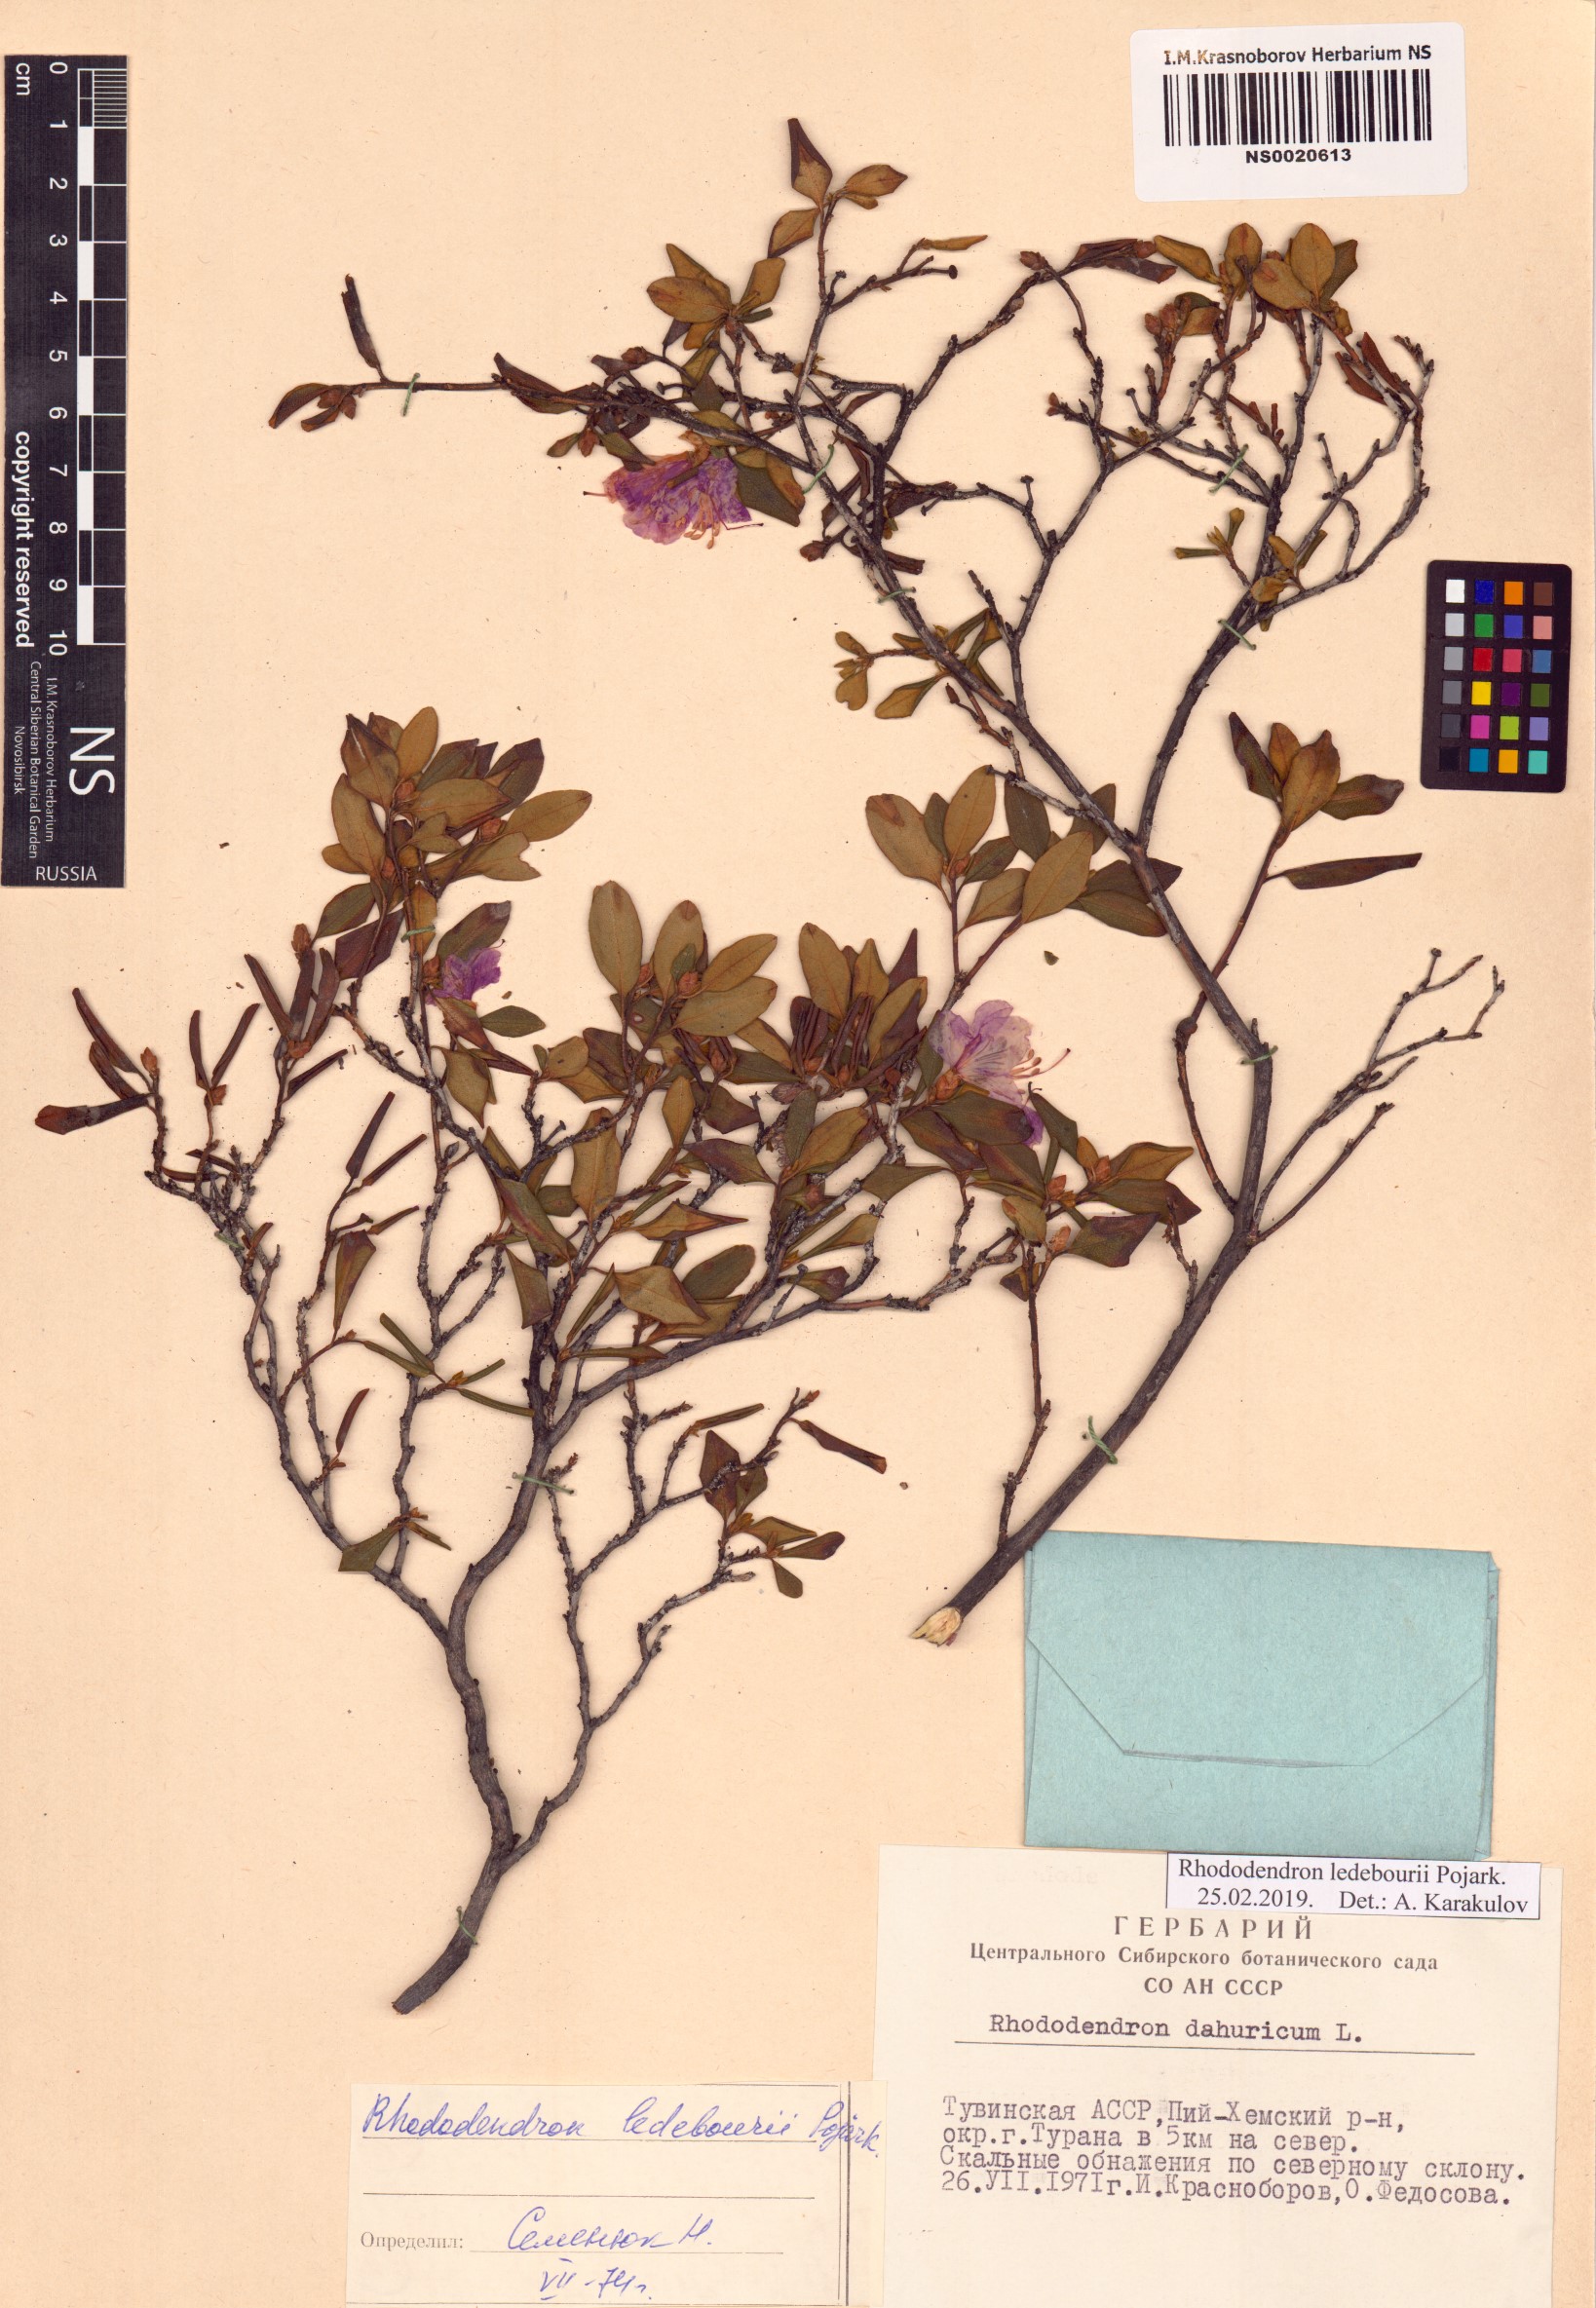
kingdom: Plantae
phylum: Tracheophyta
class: Magnoliopsida
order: Ericales
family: Ericaceae
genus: Rhododendron
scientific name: Rhododendron dauricum
